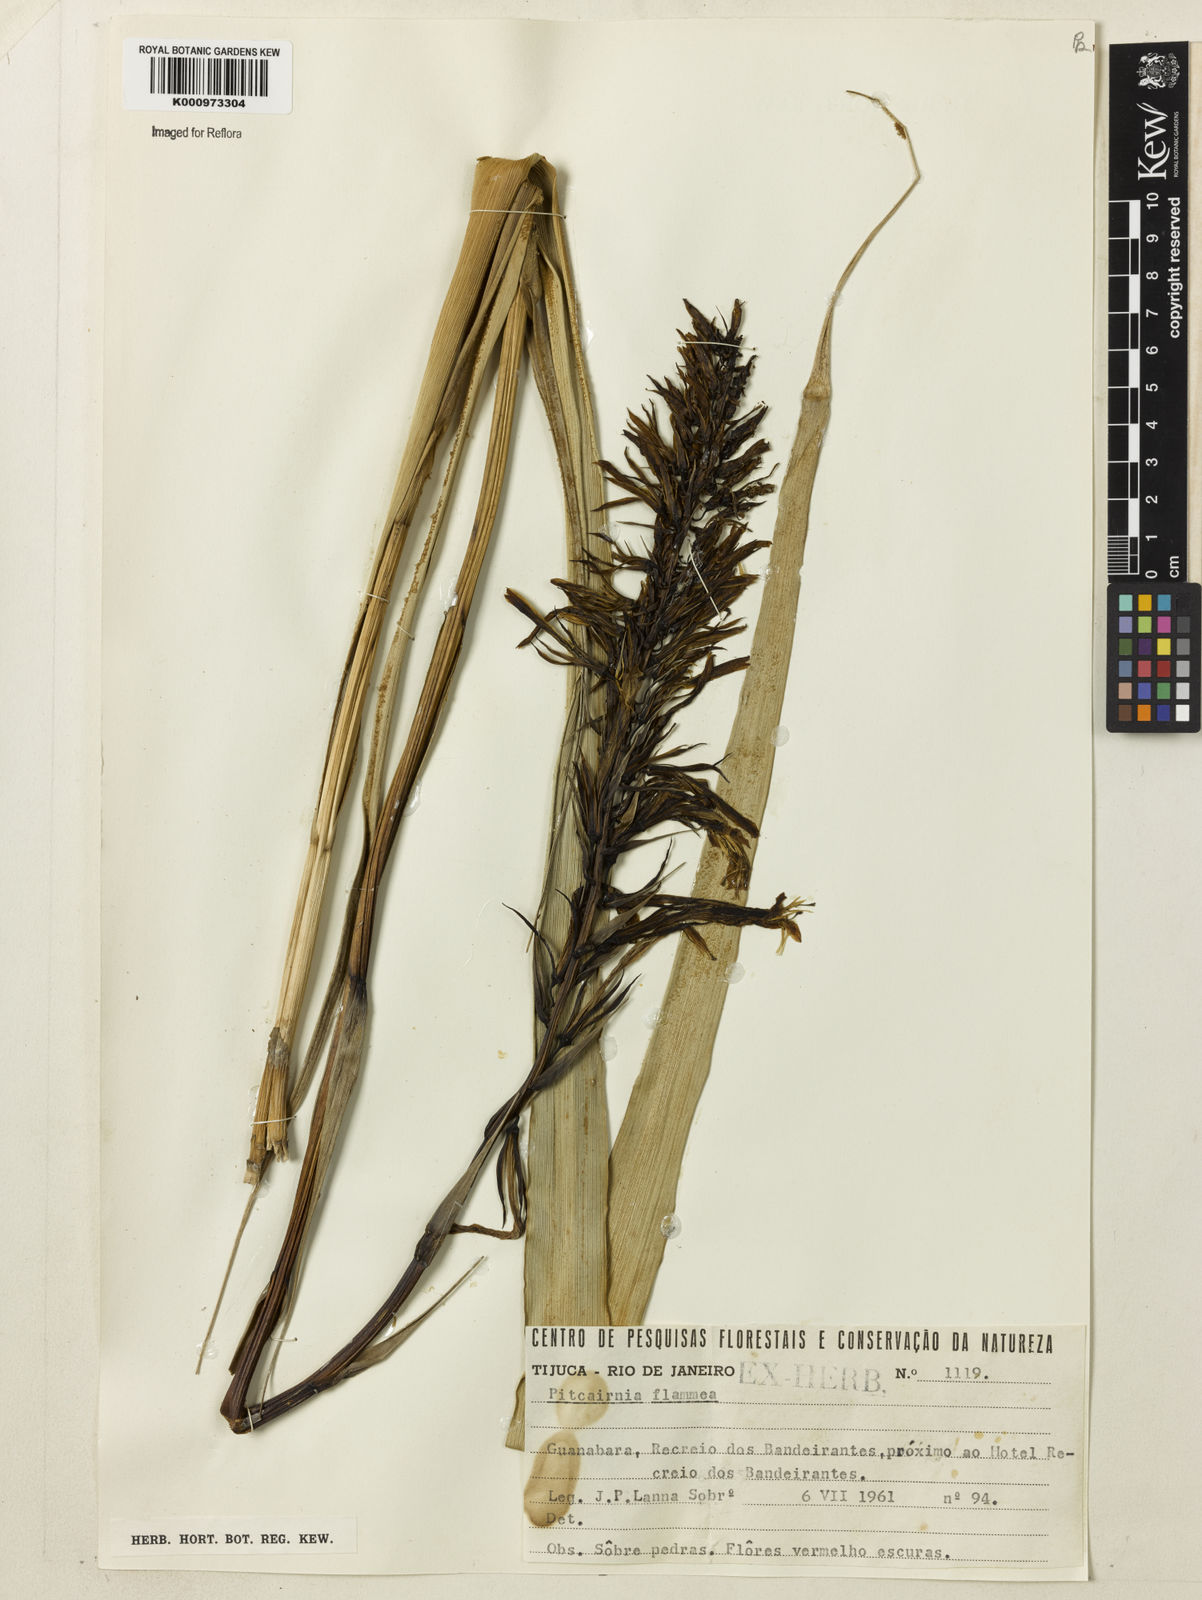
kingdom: Plantae
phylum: Tracheophyta
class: Liliopsida
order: Poales
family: Bromeliaceae
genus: Pitcairnia
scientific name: Pitcairnia flammea
